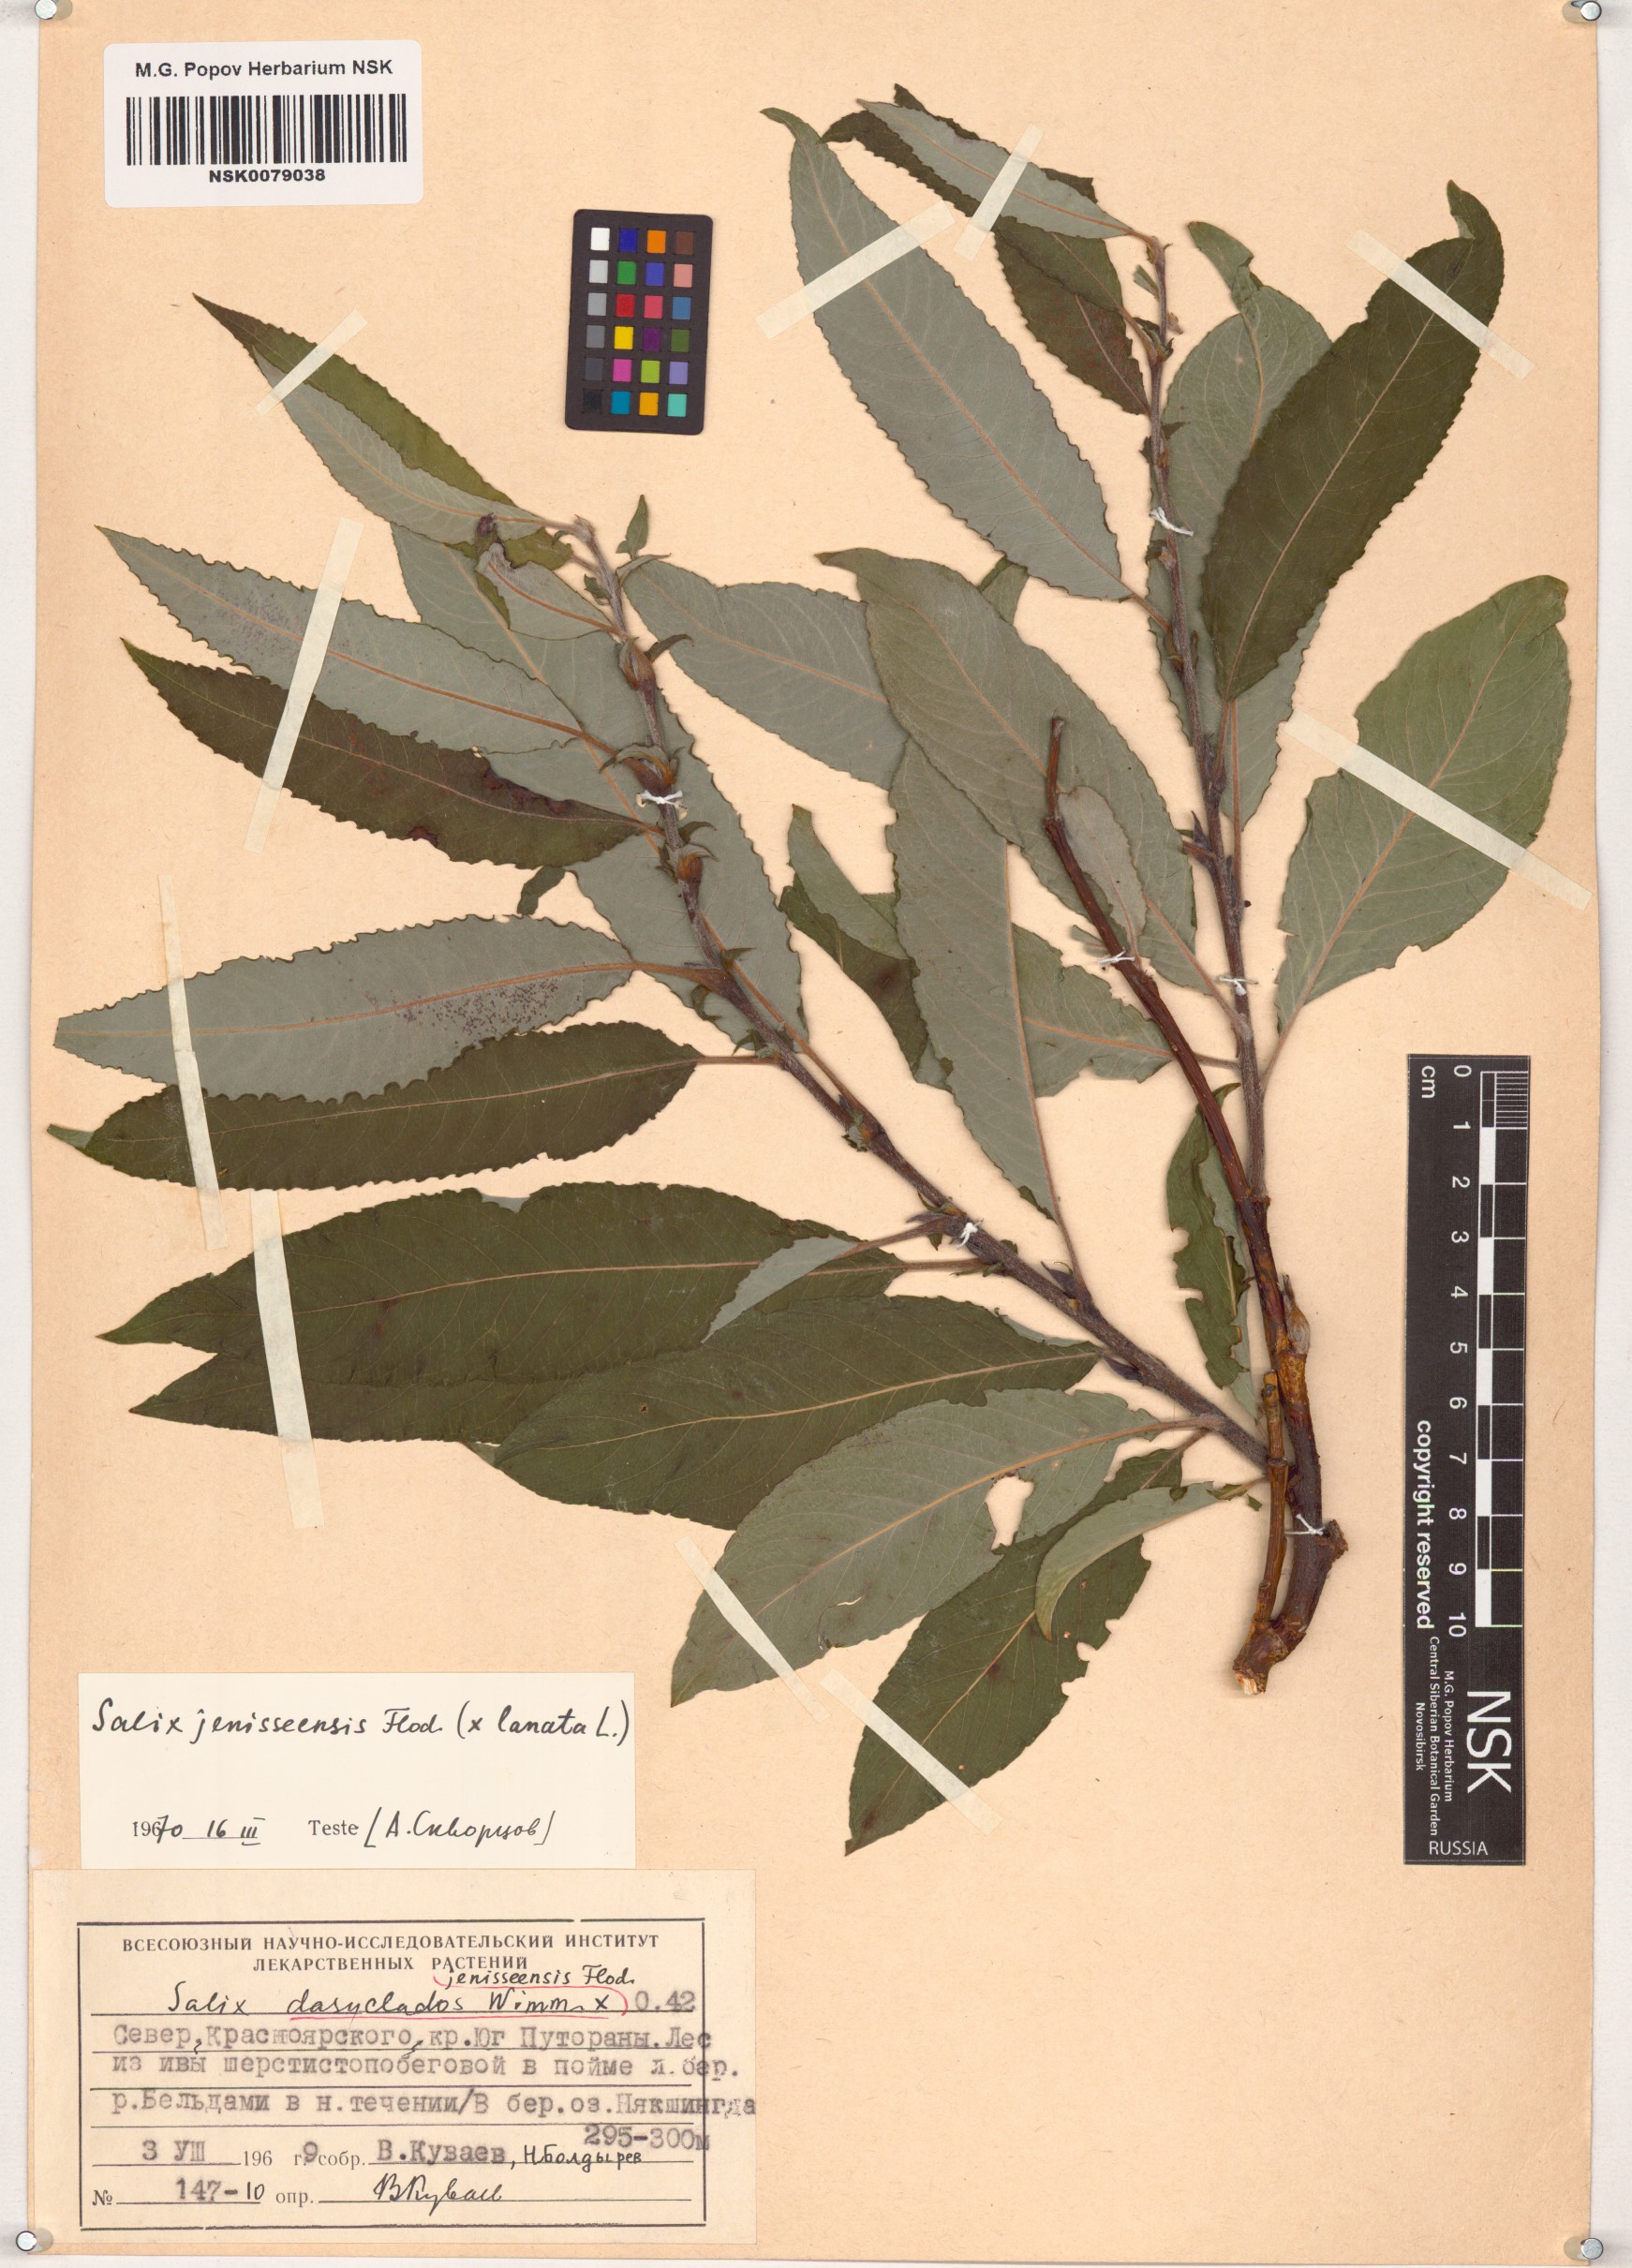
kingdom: Plantae
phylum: Tracheophyta
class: Magnoliopsida
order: Malpighiales
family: Salicaceae
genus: Salix
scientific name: Salix jenisseensis
